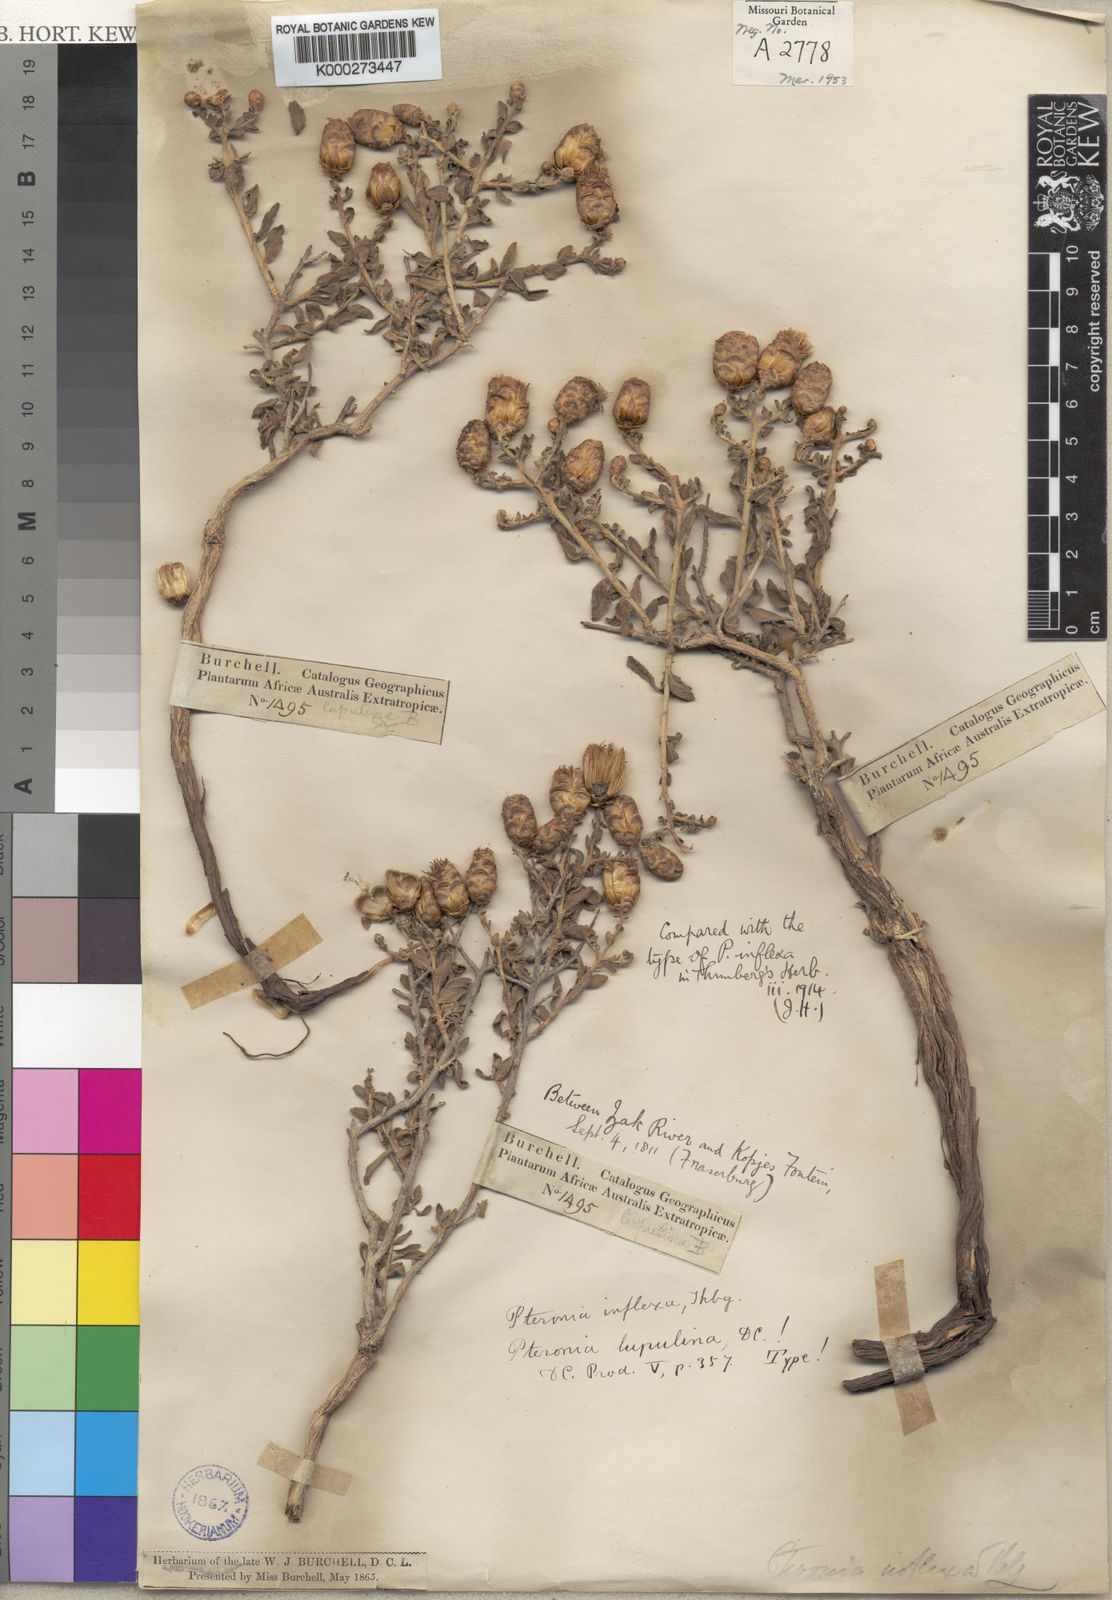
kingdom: Plantae
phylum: Tracheophyta
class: Magnoliopsida
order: Asterales
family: Asteraceae
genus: Pteronia
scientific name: Pteronia inflexa
